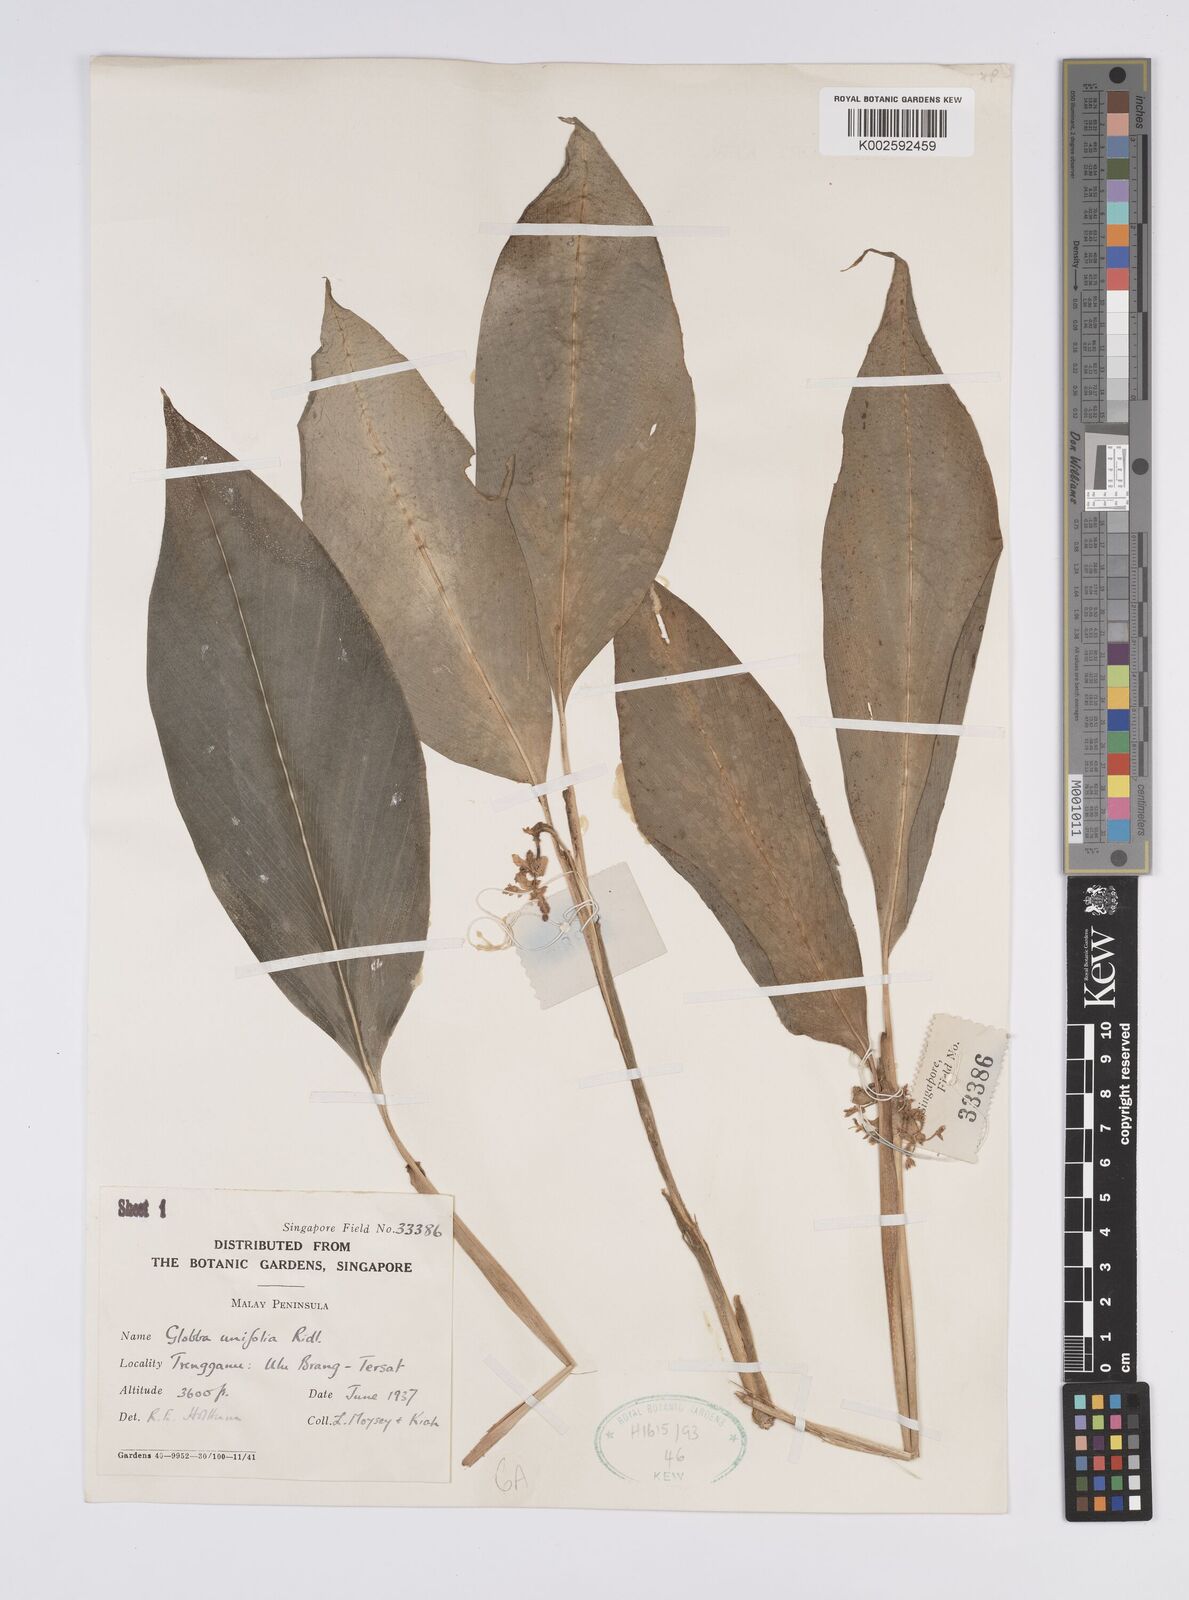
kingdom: Plantae
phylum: Tracheophyta
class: Liliopsida
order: Zingiberales
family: Zingiberaceae
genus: Globba
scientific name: Globba unifolia
